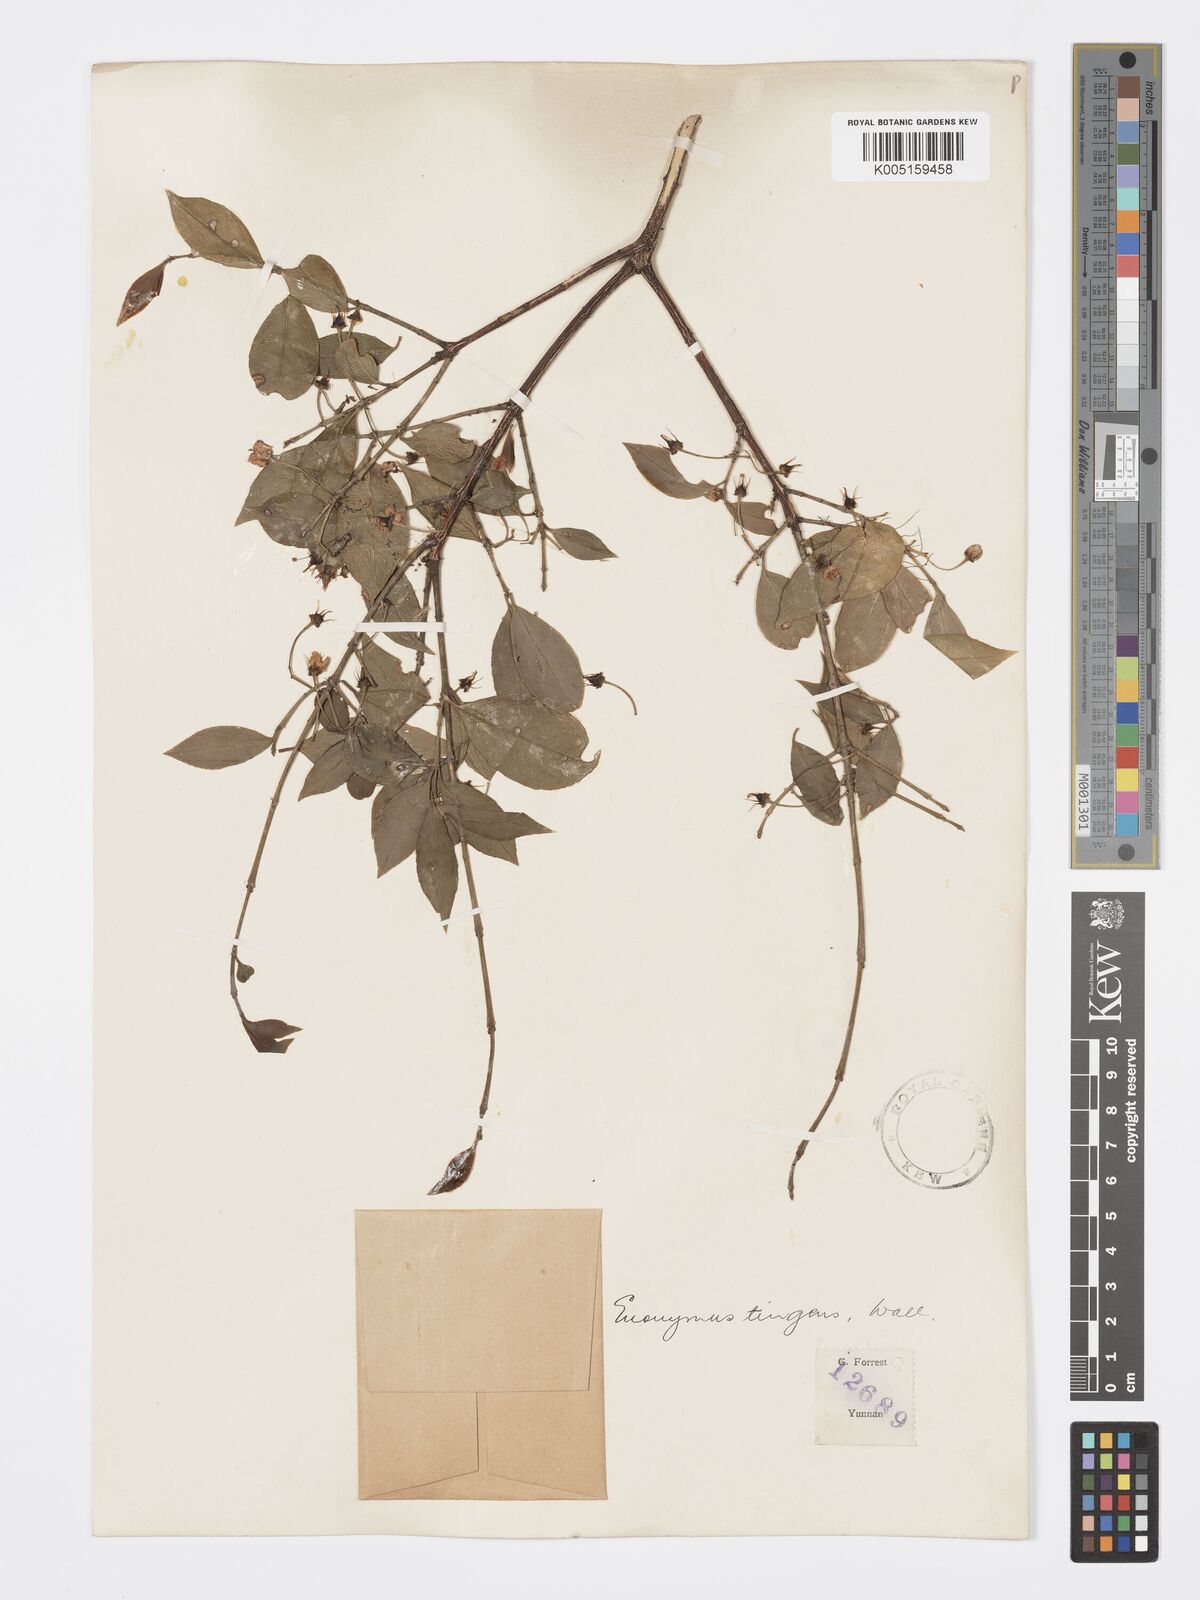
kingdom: Plantae
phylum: Tracheophyta
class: Magnoliopsida
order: Celastrales
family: Celastraceae
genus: Euonymus
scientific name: Euonymus tingens
